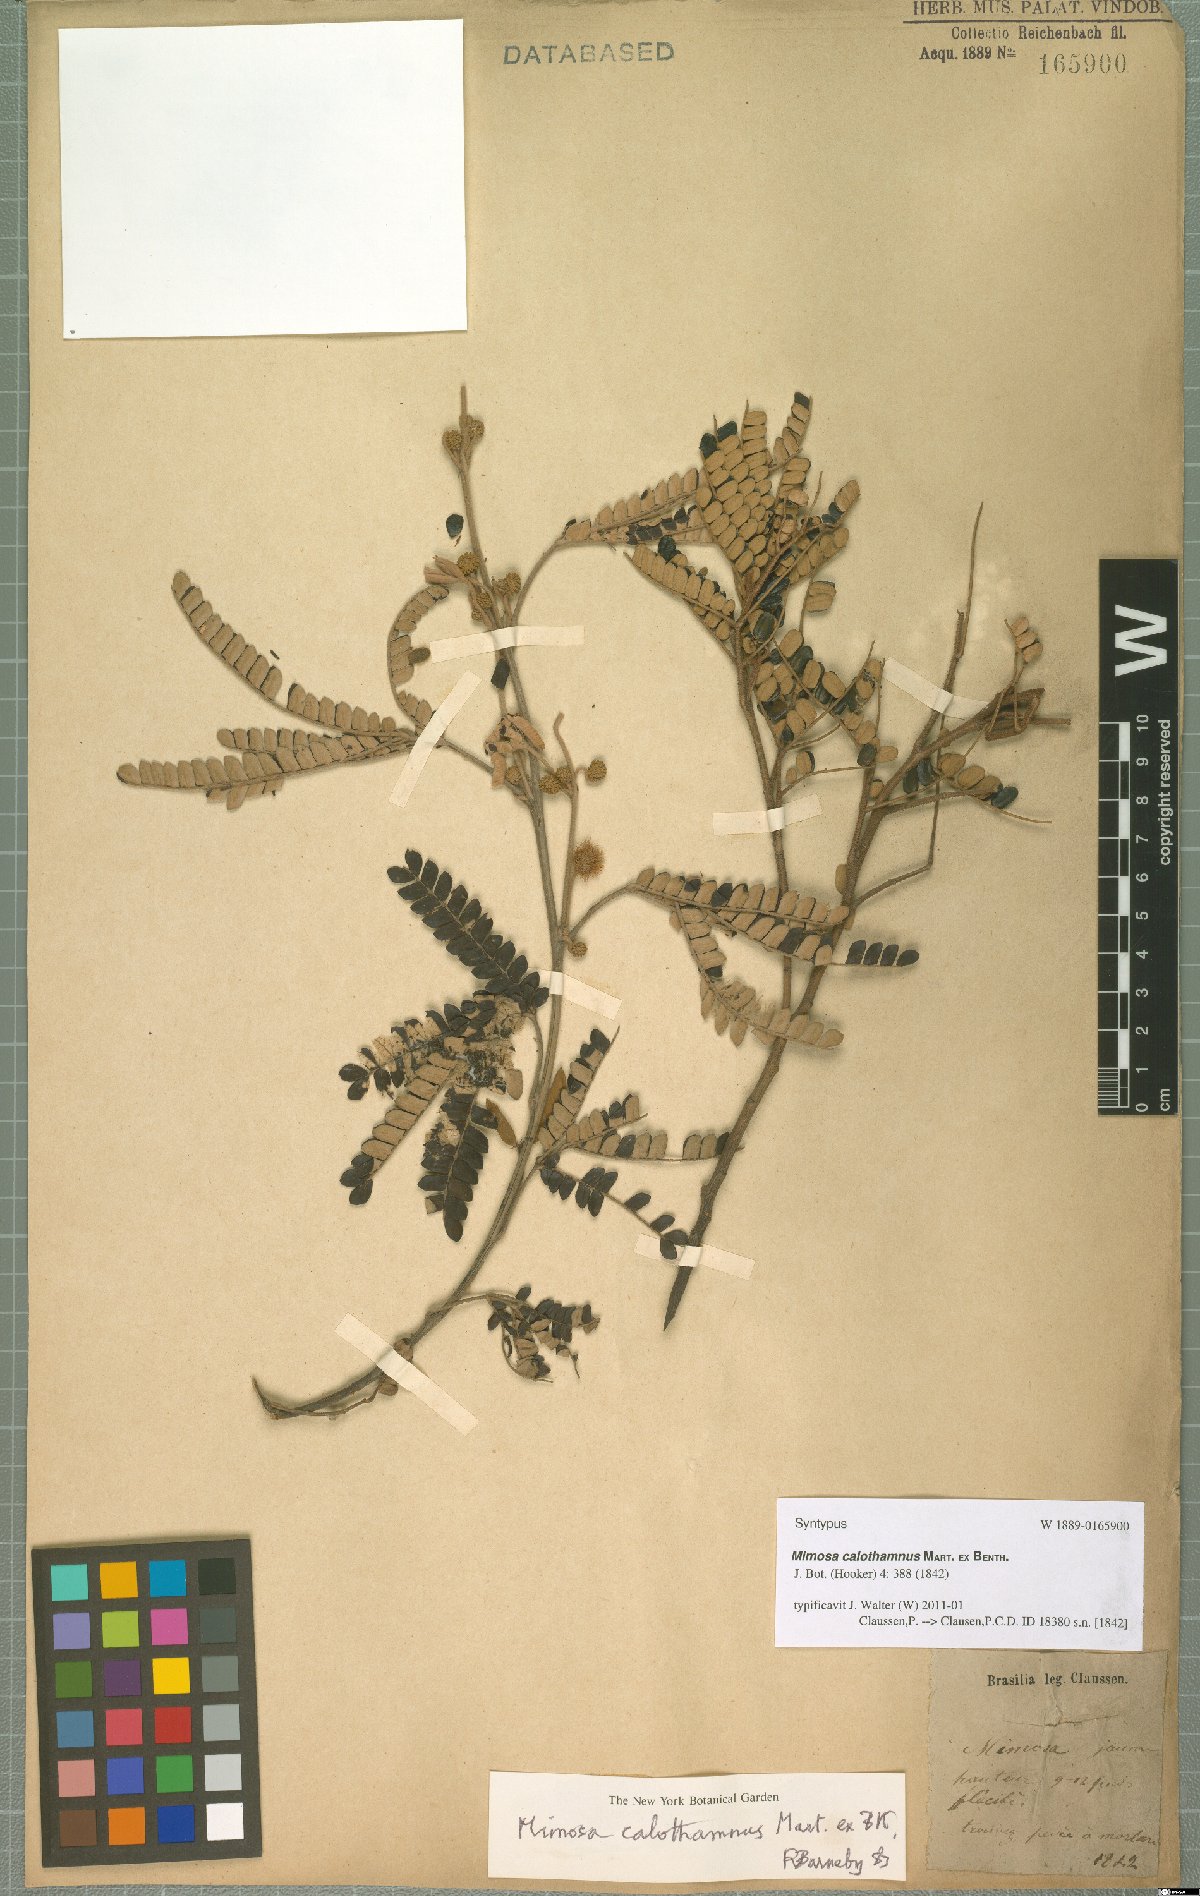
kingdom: Plantae
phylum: Tracheophyta
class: Magnoliopsida
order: Fabales
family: Fabaceae
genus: Mimosa
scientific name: Mimosa calothamnus
